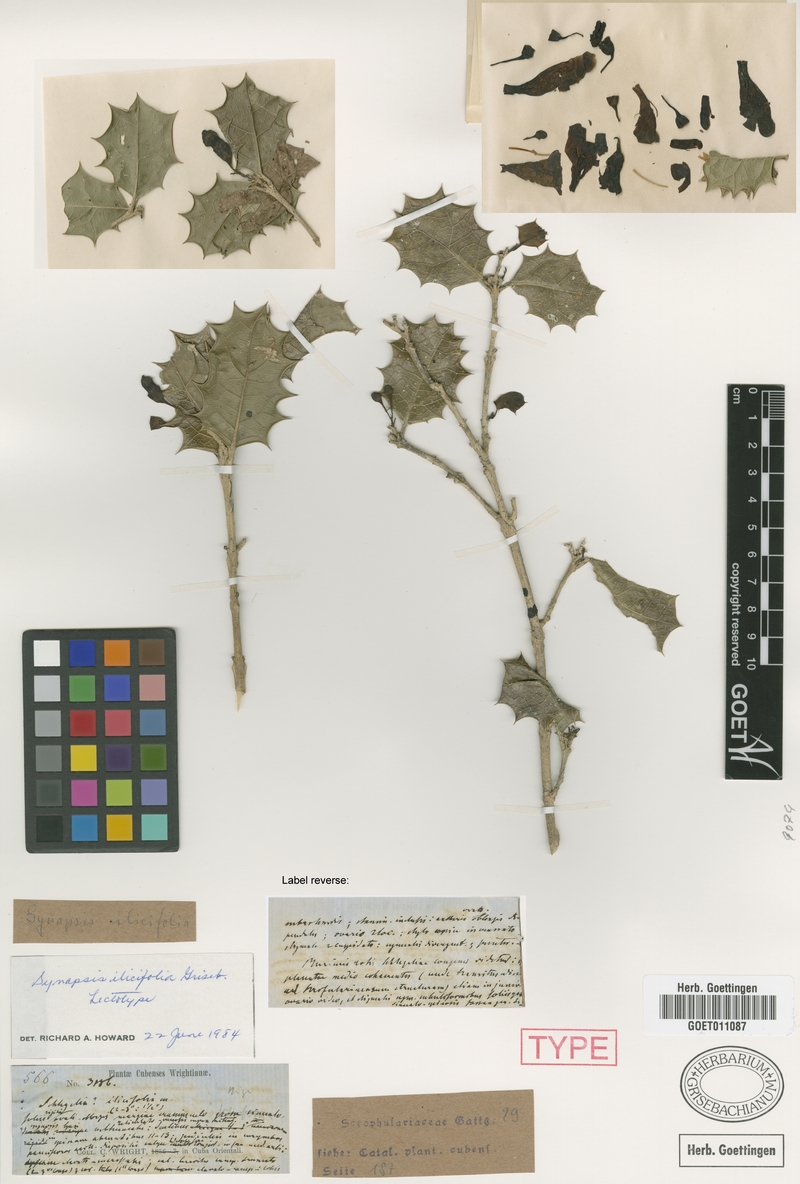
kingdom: Plantae
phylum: Tracheophyta
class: Magnoliopsida
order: Lamiales
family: Schlegeliaceae
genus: Synapsis
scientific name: Synapsis ilicifolia
